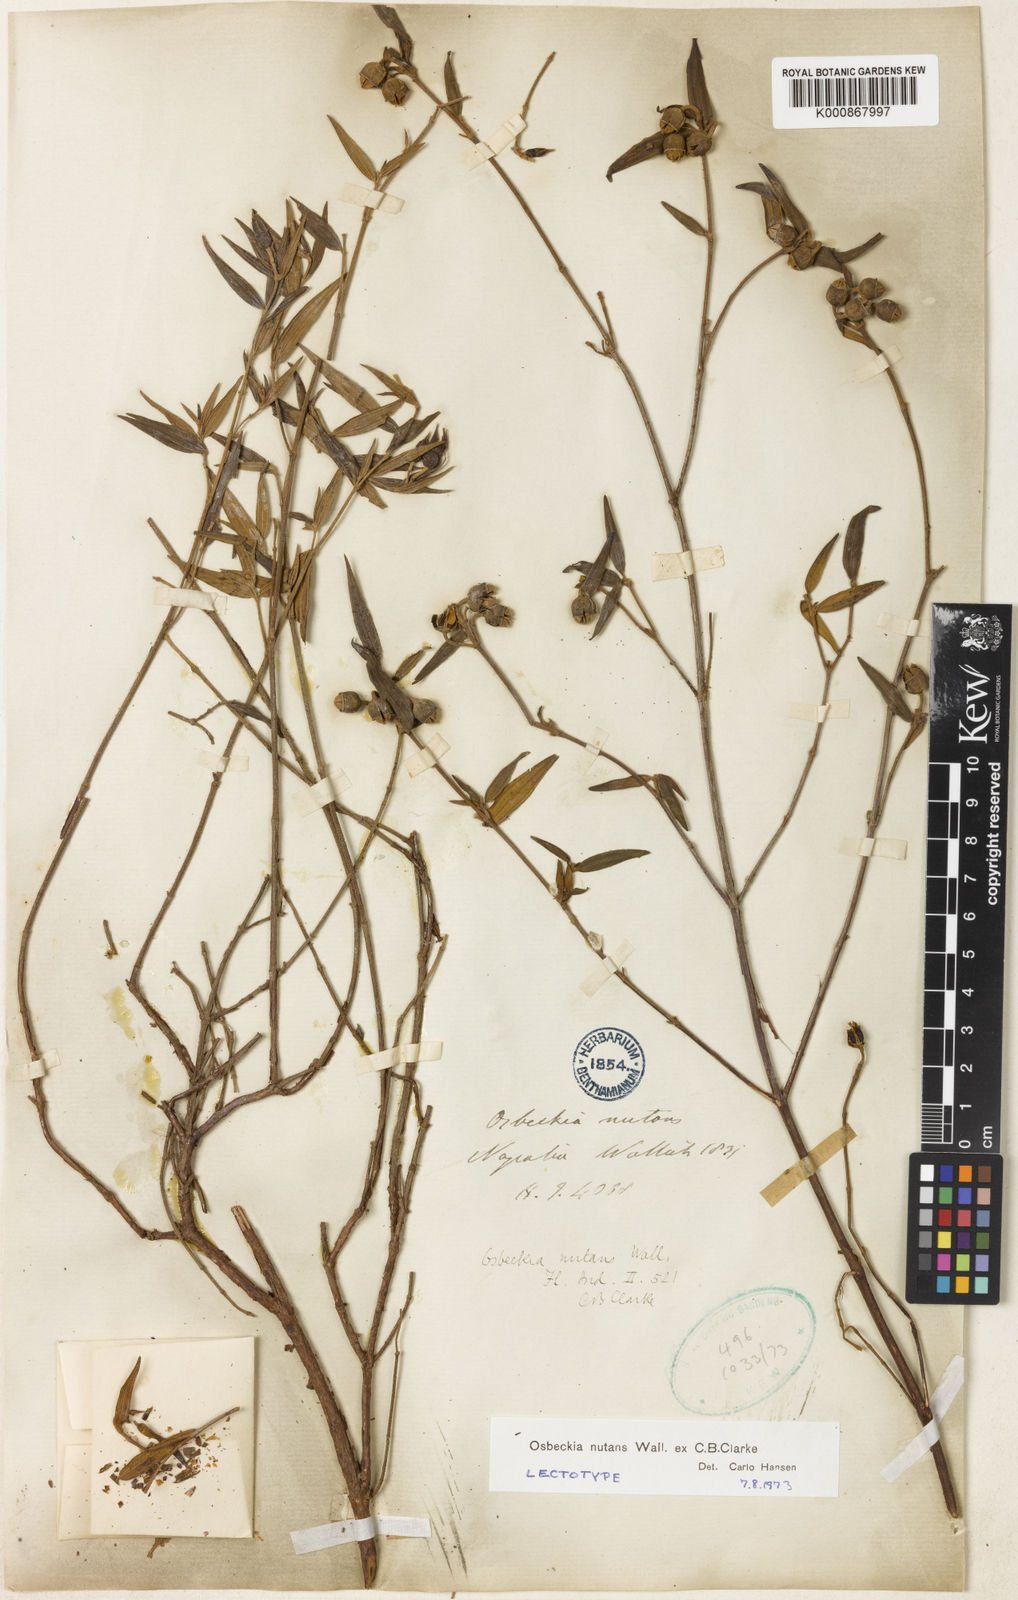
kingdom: Plantae
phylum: Tracheophyta
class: Magnoliopsida
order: Myrtales
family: Melastomataceae
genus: Osbeckia
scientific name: Osbeckia nutans
